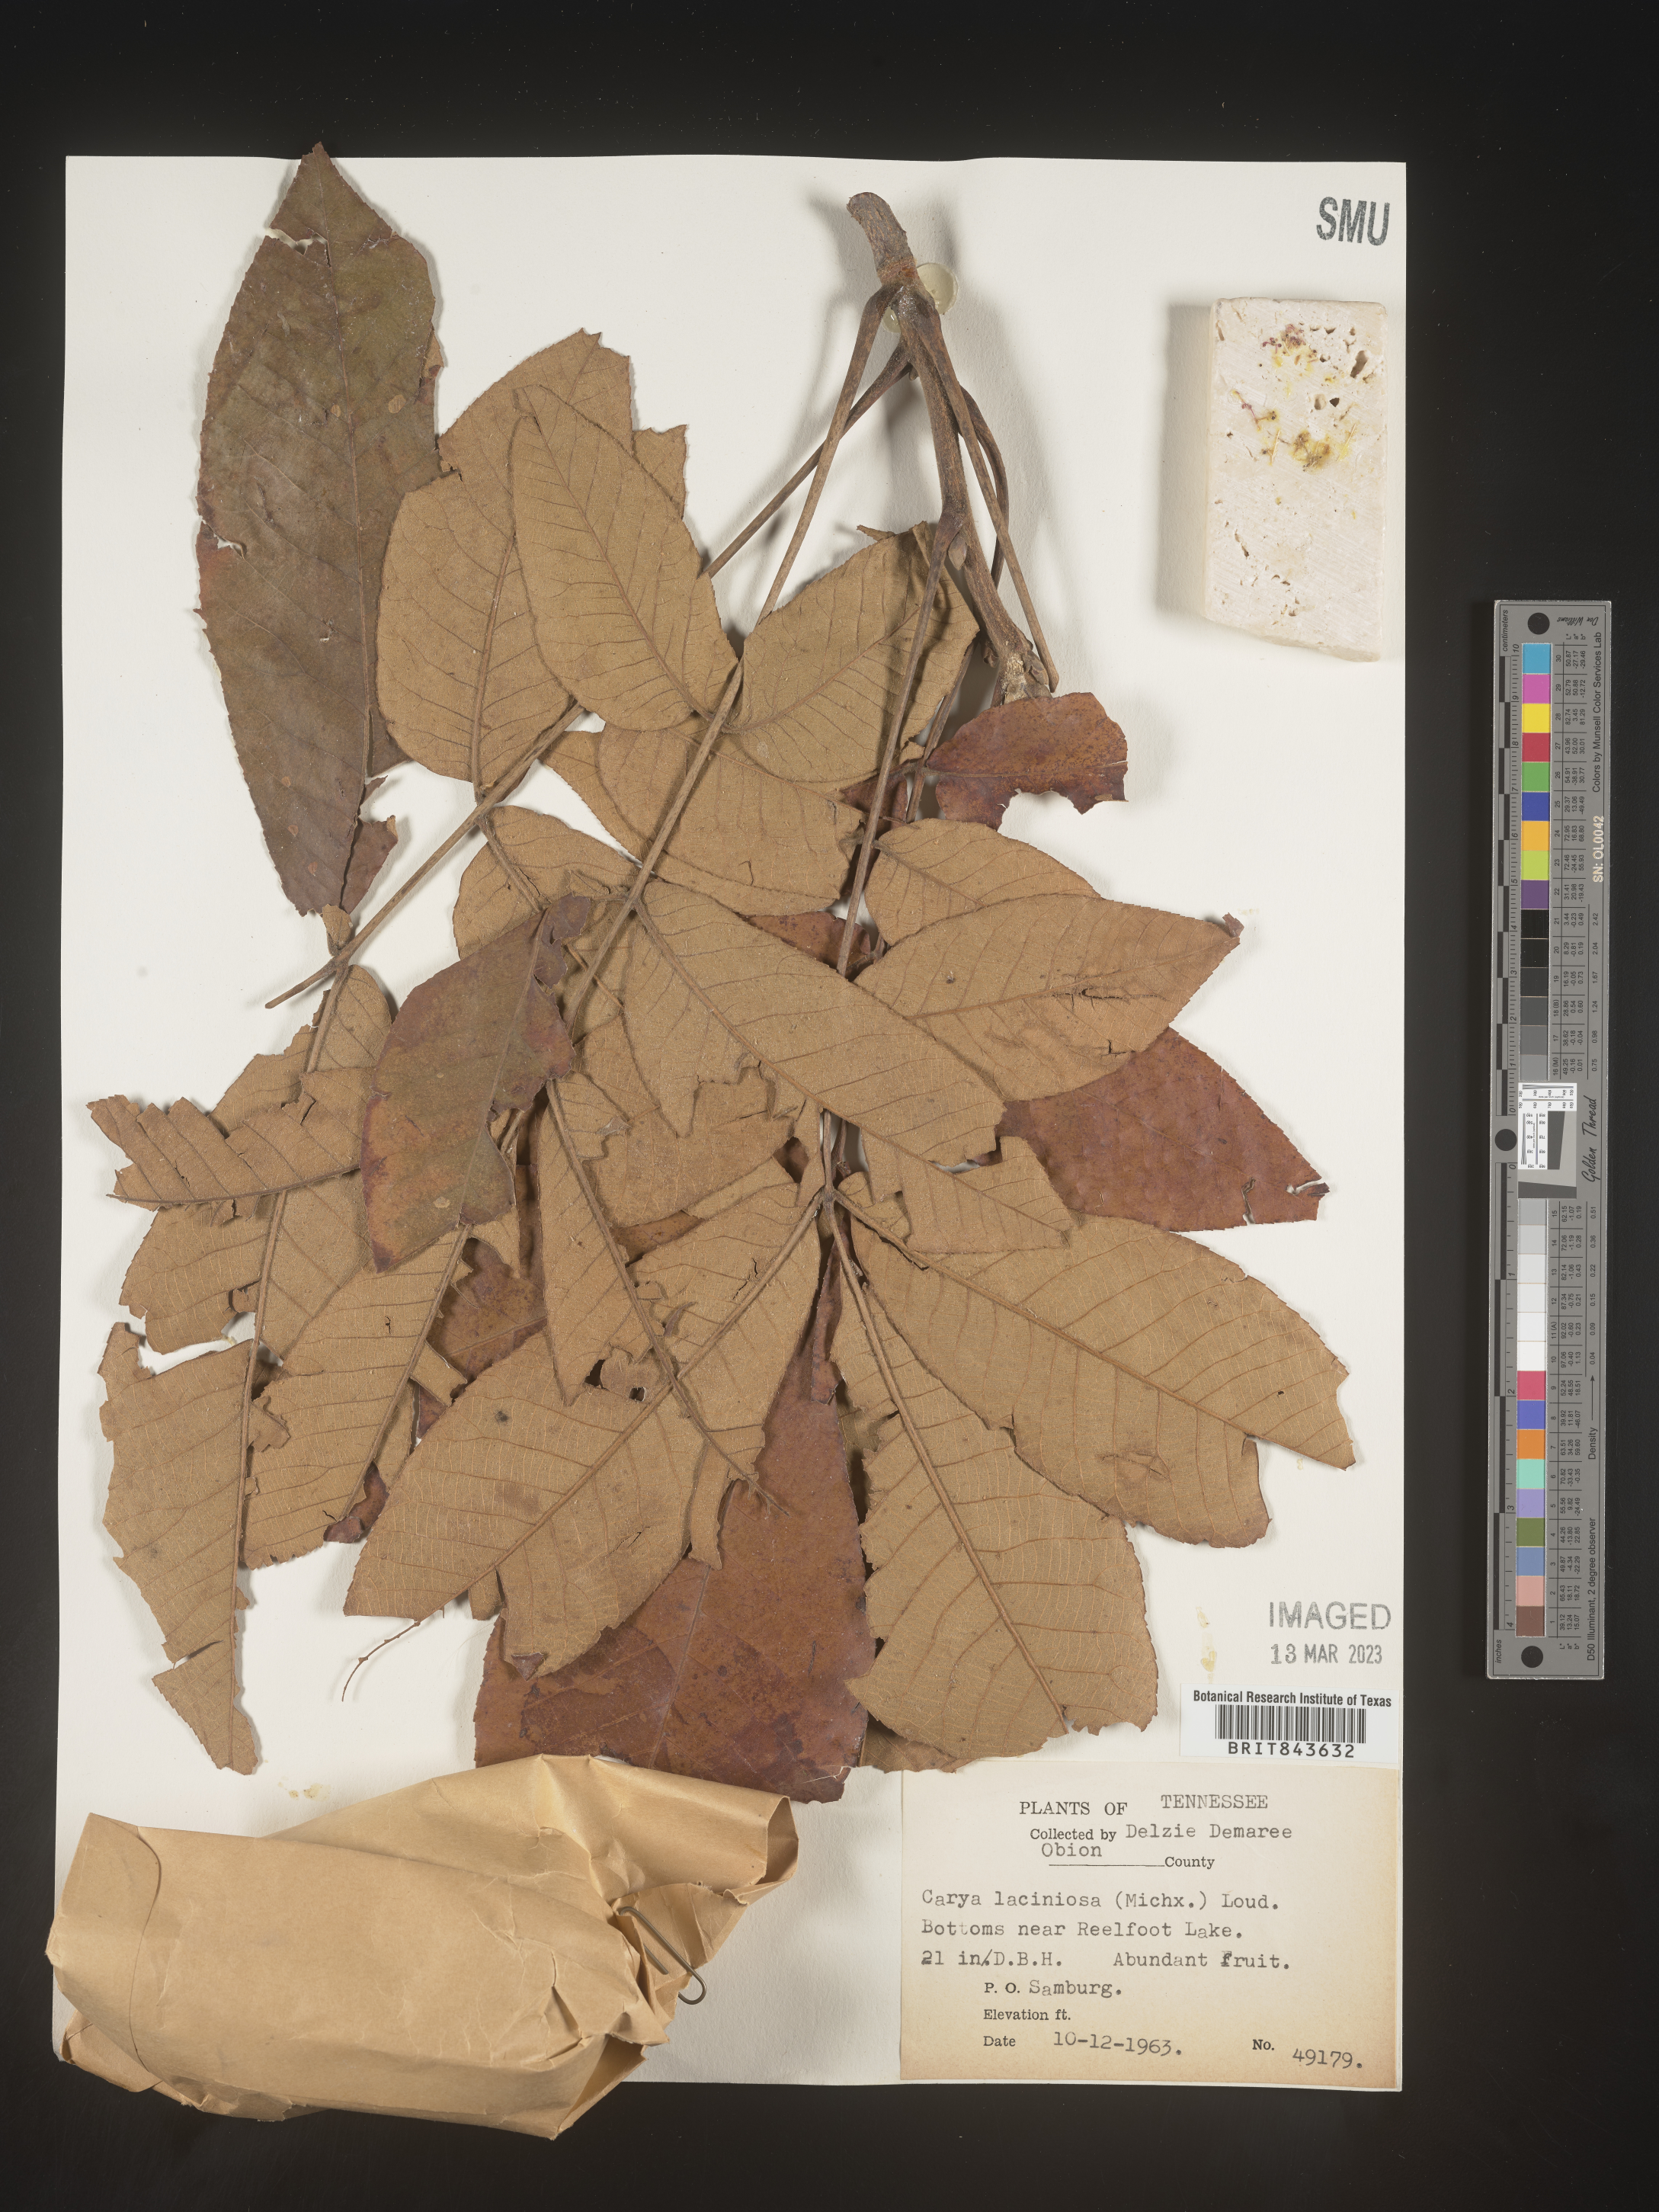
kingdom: Plantae
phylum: Tracheophyta
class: Magnoliopsida
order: Fagales
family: Juglandaceae
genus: Carya
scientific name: Carya laciniosa
